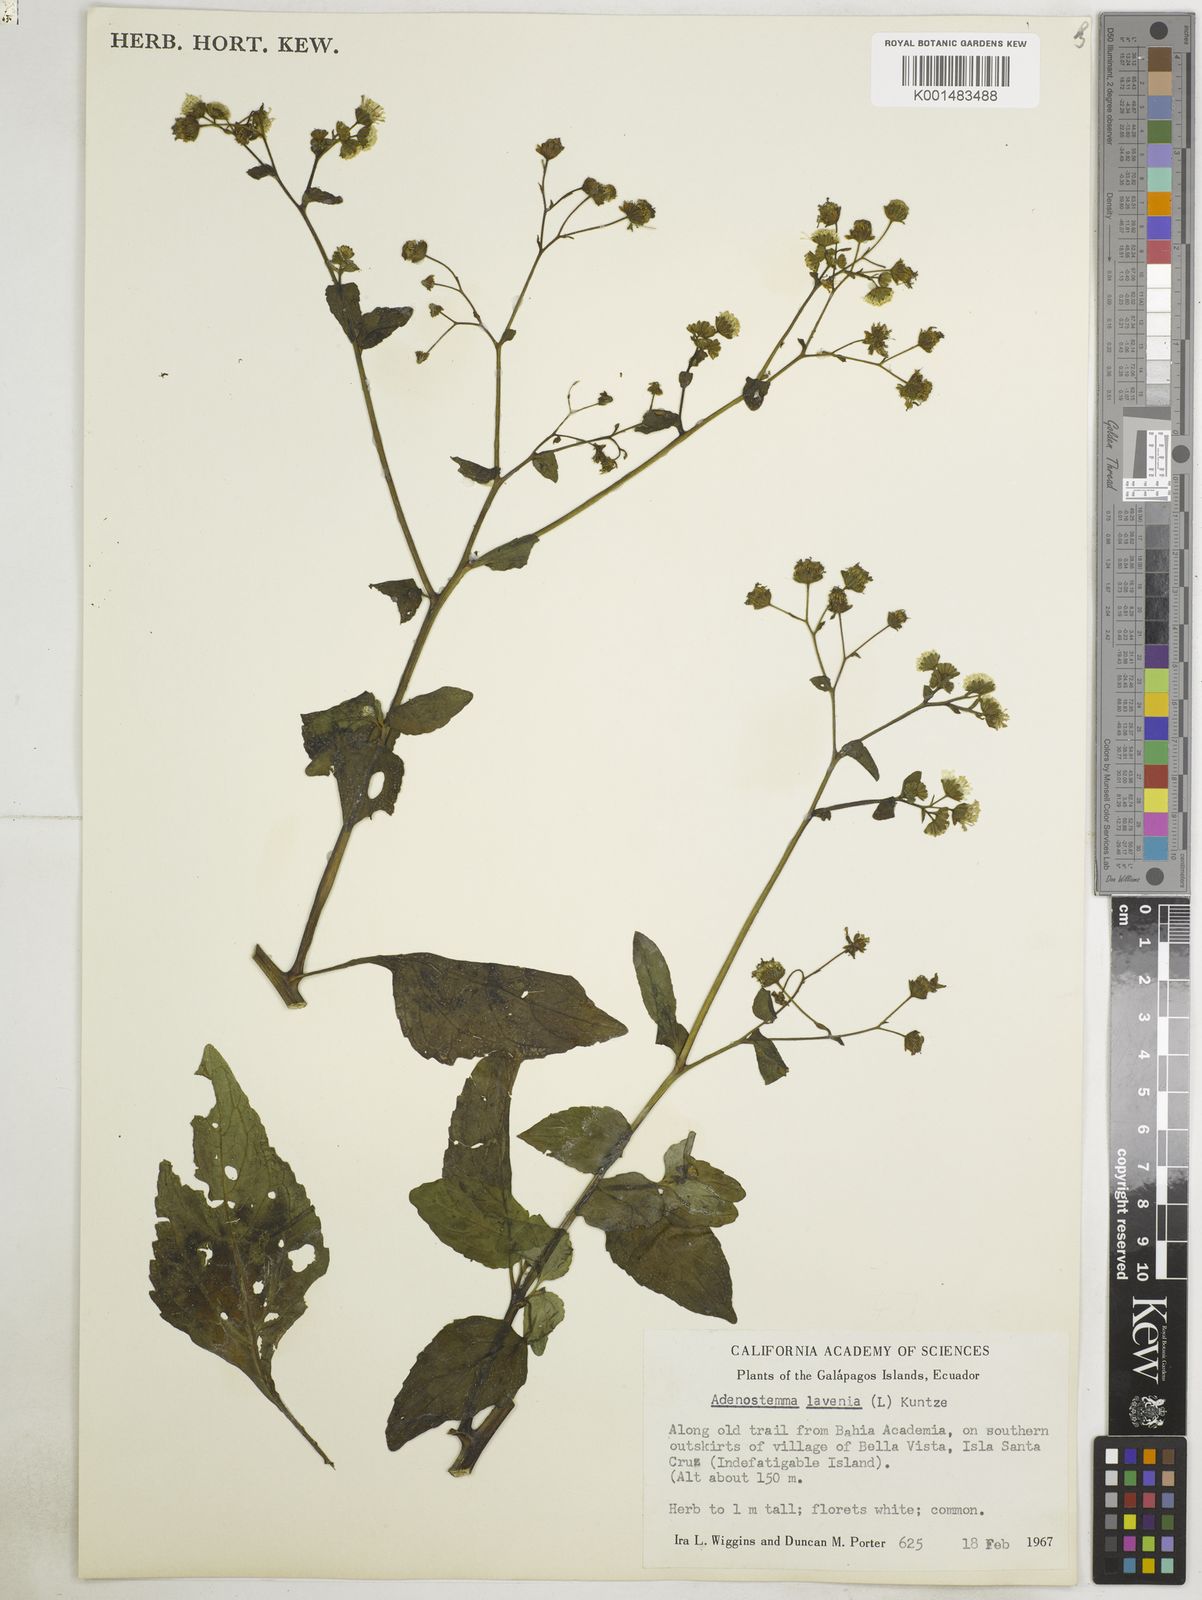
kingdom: Plantae
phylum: Tracheophyta
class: Magnoliopsida
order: Asterales
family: Asteraceae
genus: Adenostemma
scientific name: Adenostemma lavenia
